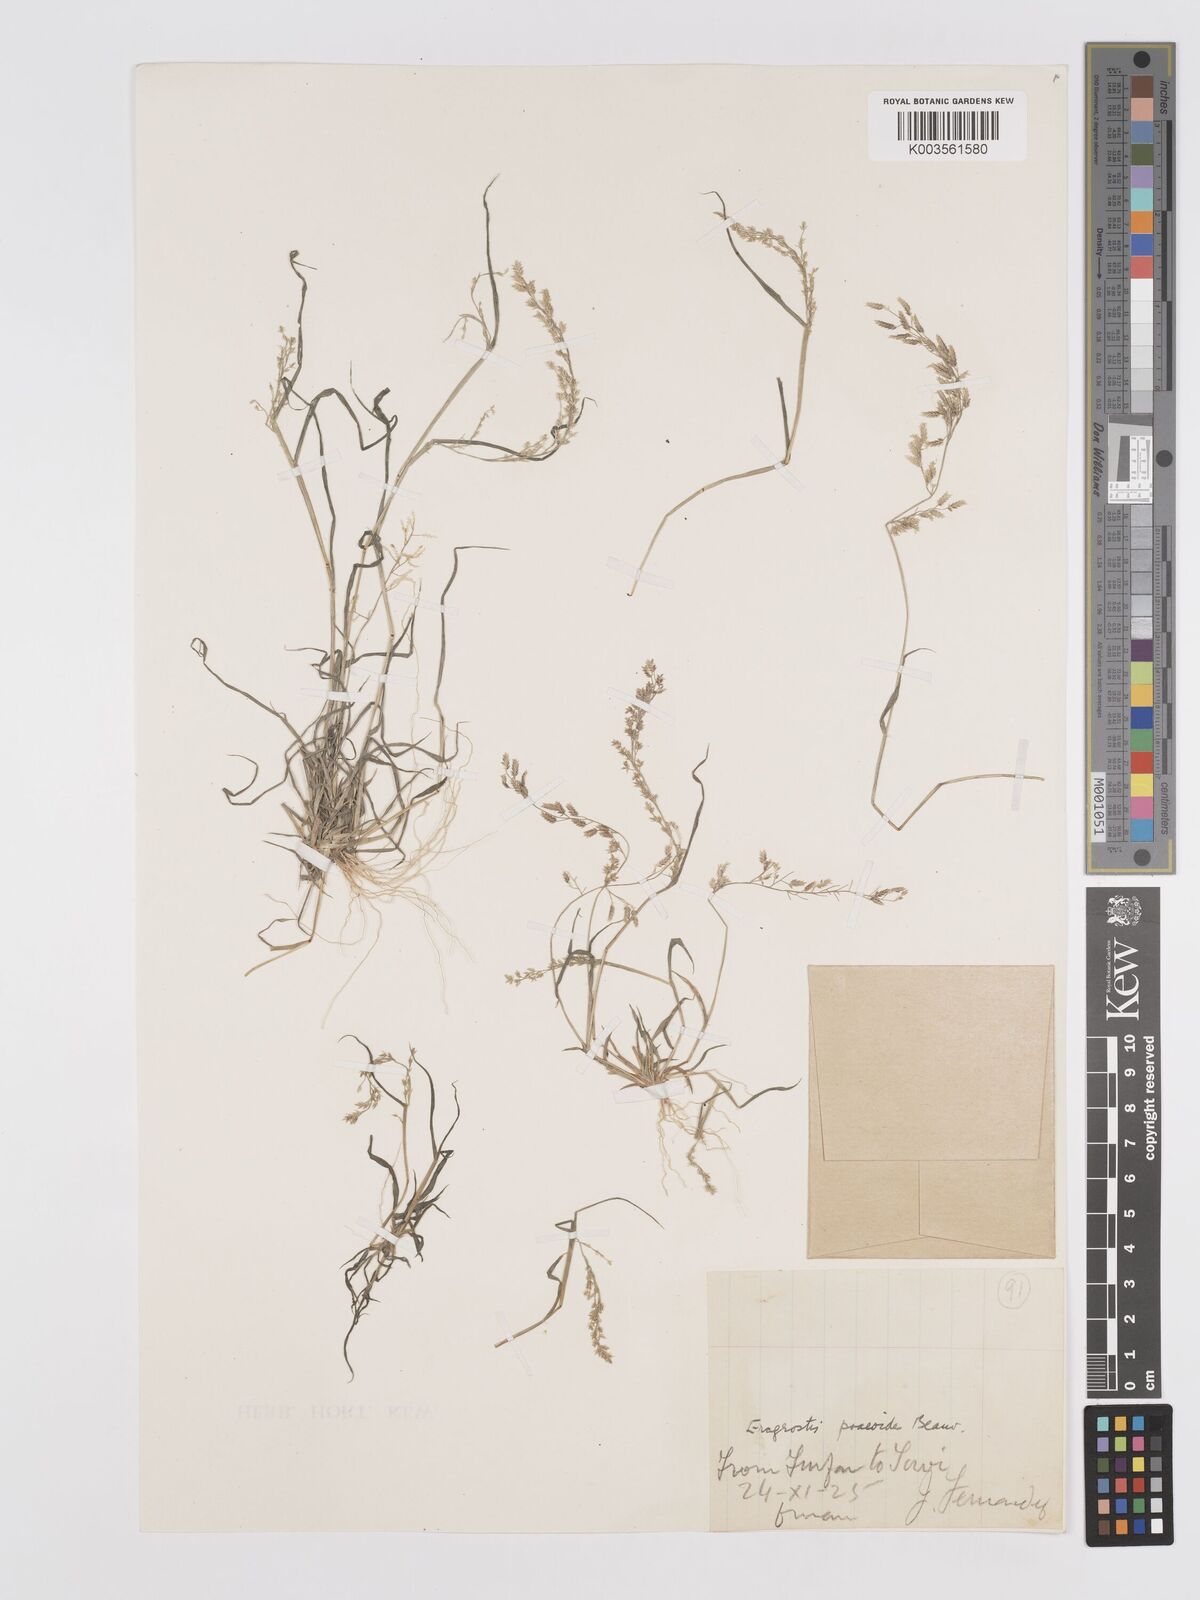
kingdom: Plantae
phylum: Tracheophyta
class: Liliopsida
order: Poales
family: Poaceae
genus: Eragrostis
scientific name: Eragrostis minor
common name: Small love-grass
